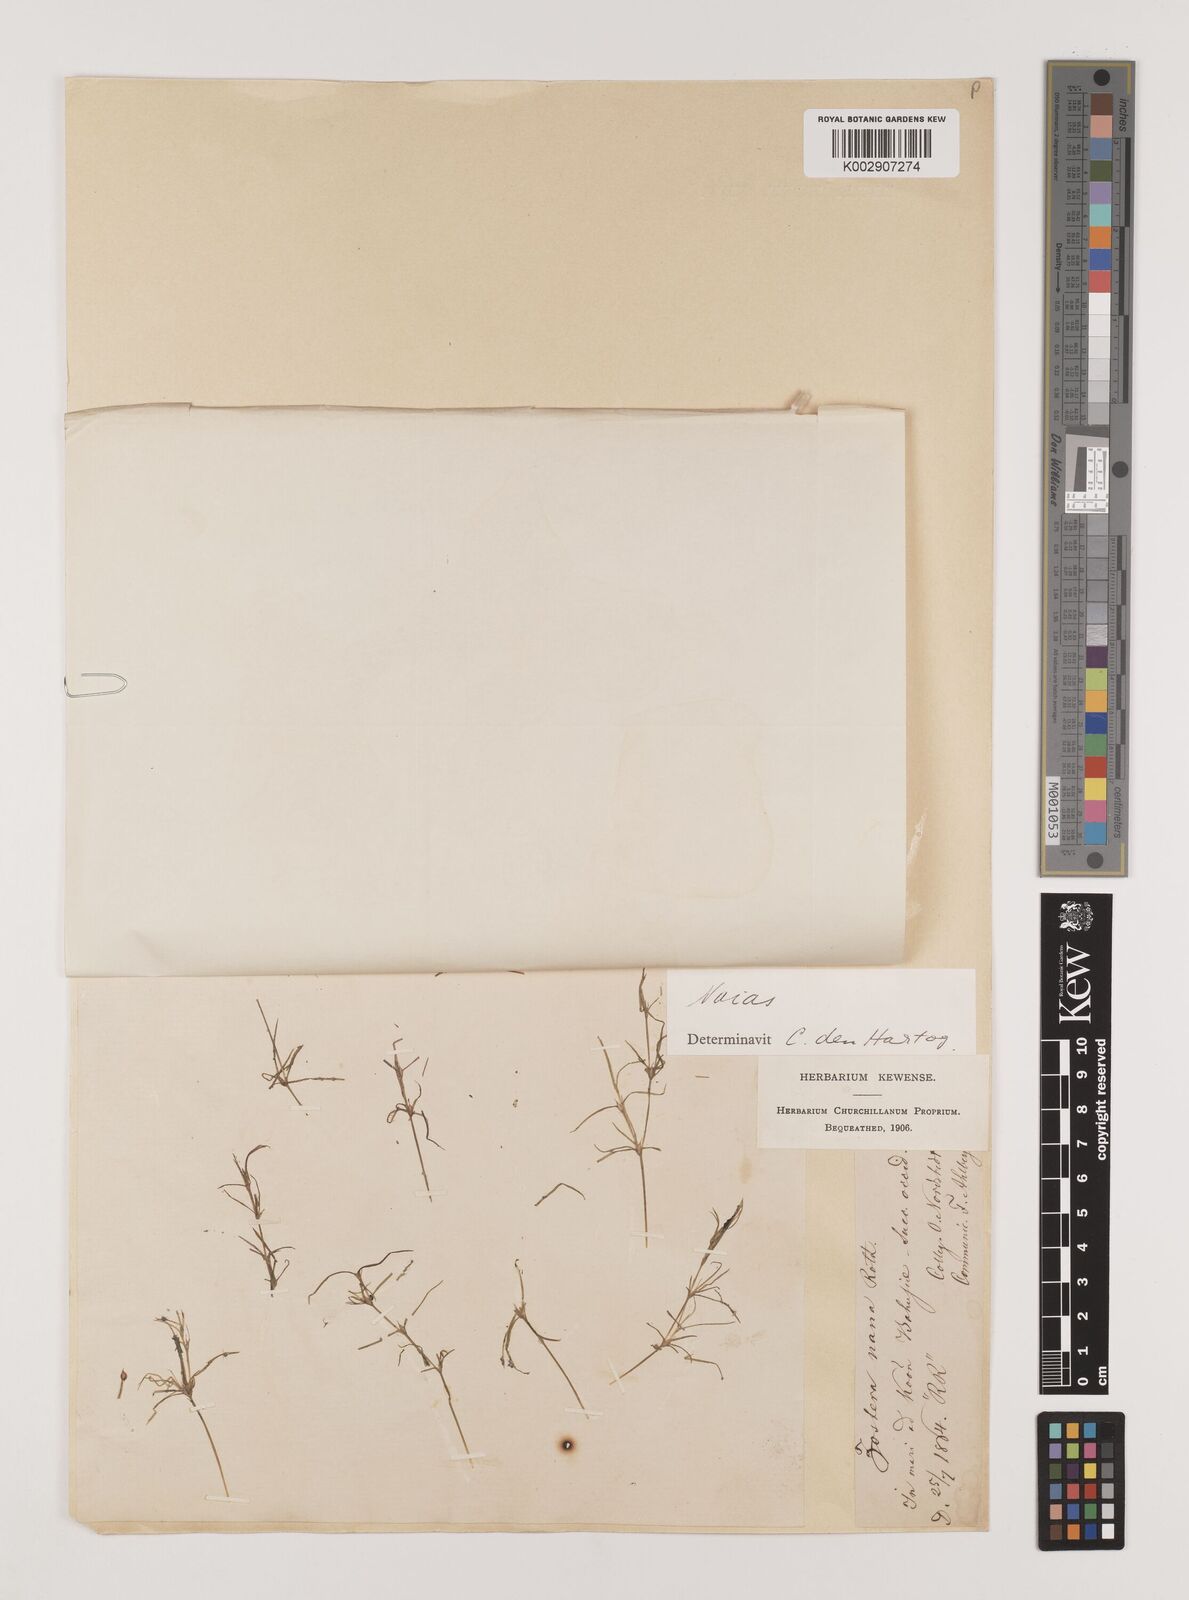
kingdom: Plantae
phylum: Tracheophyta
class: Liliopsida
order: Alismatales
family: Hydrocharitaceae
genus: Najas
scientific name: Najas flexilis
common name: Slender naiad
